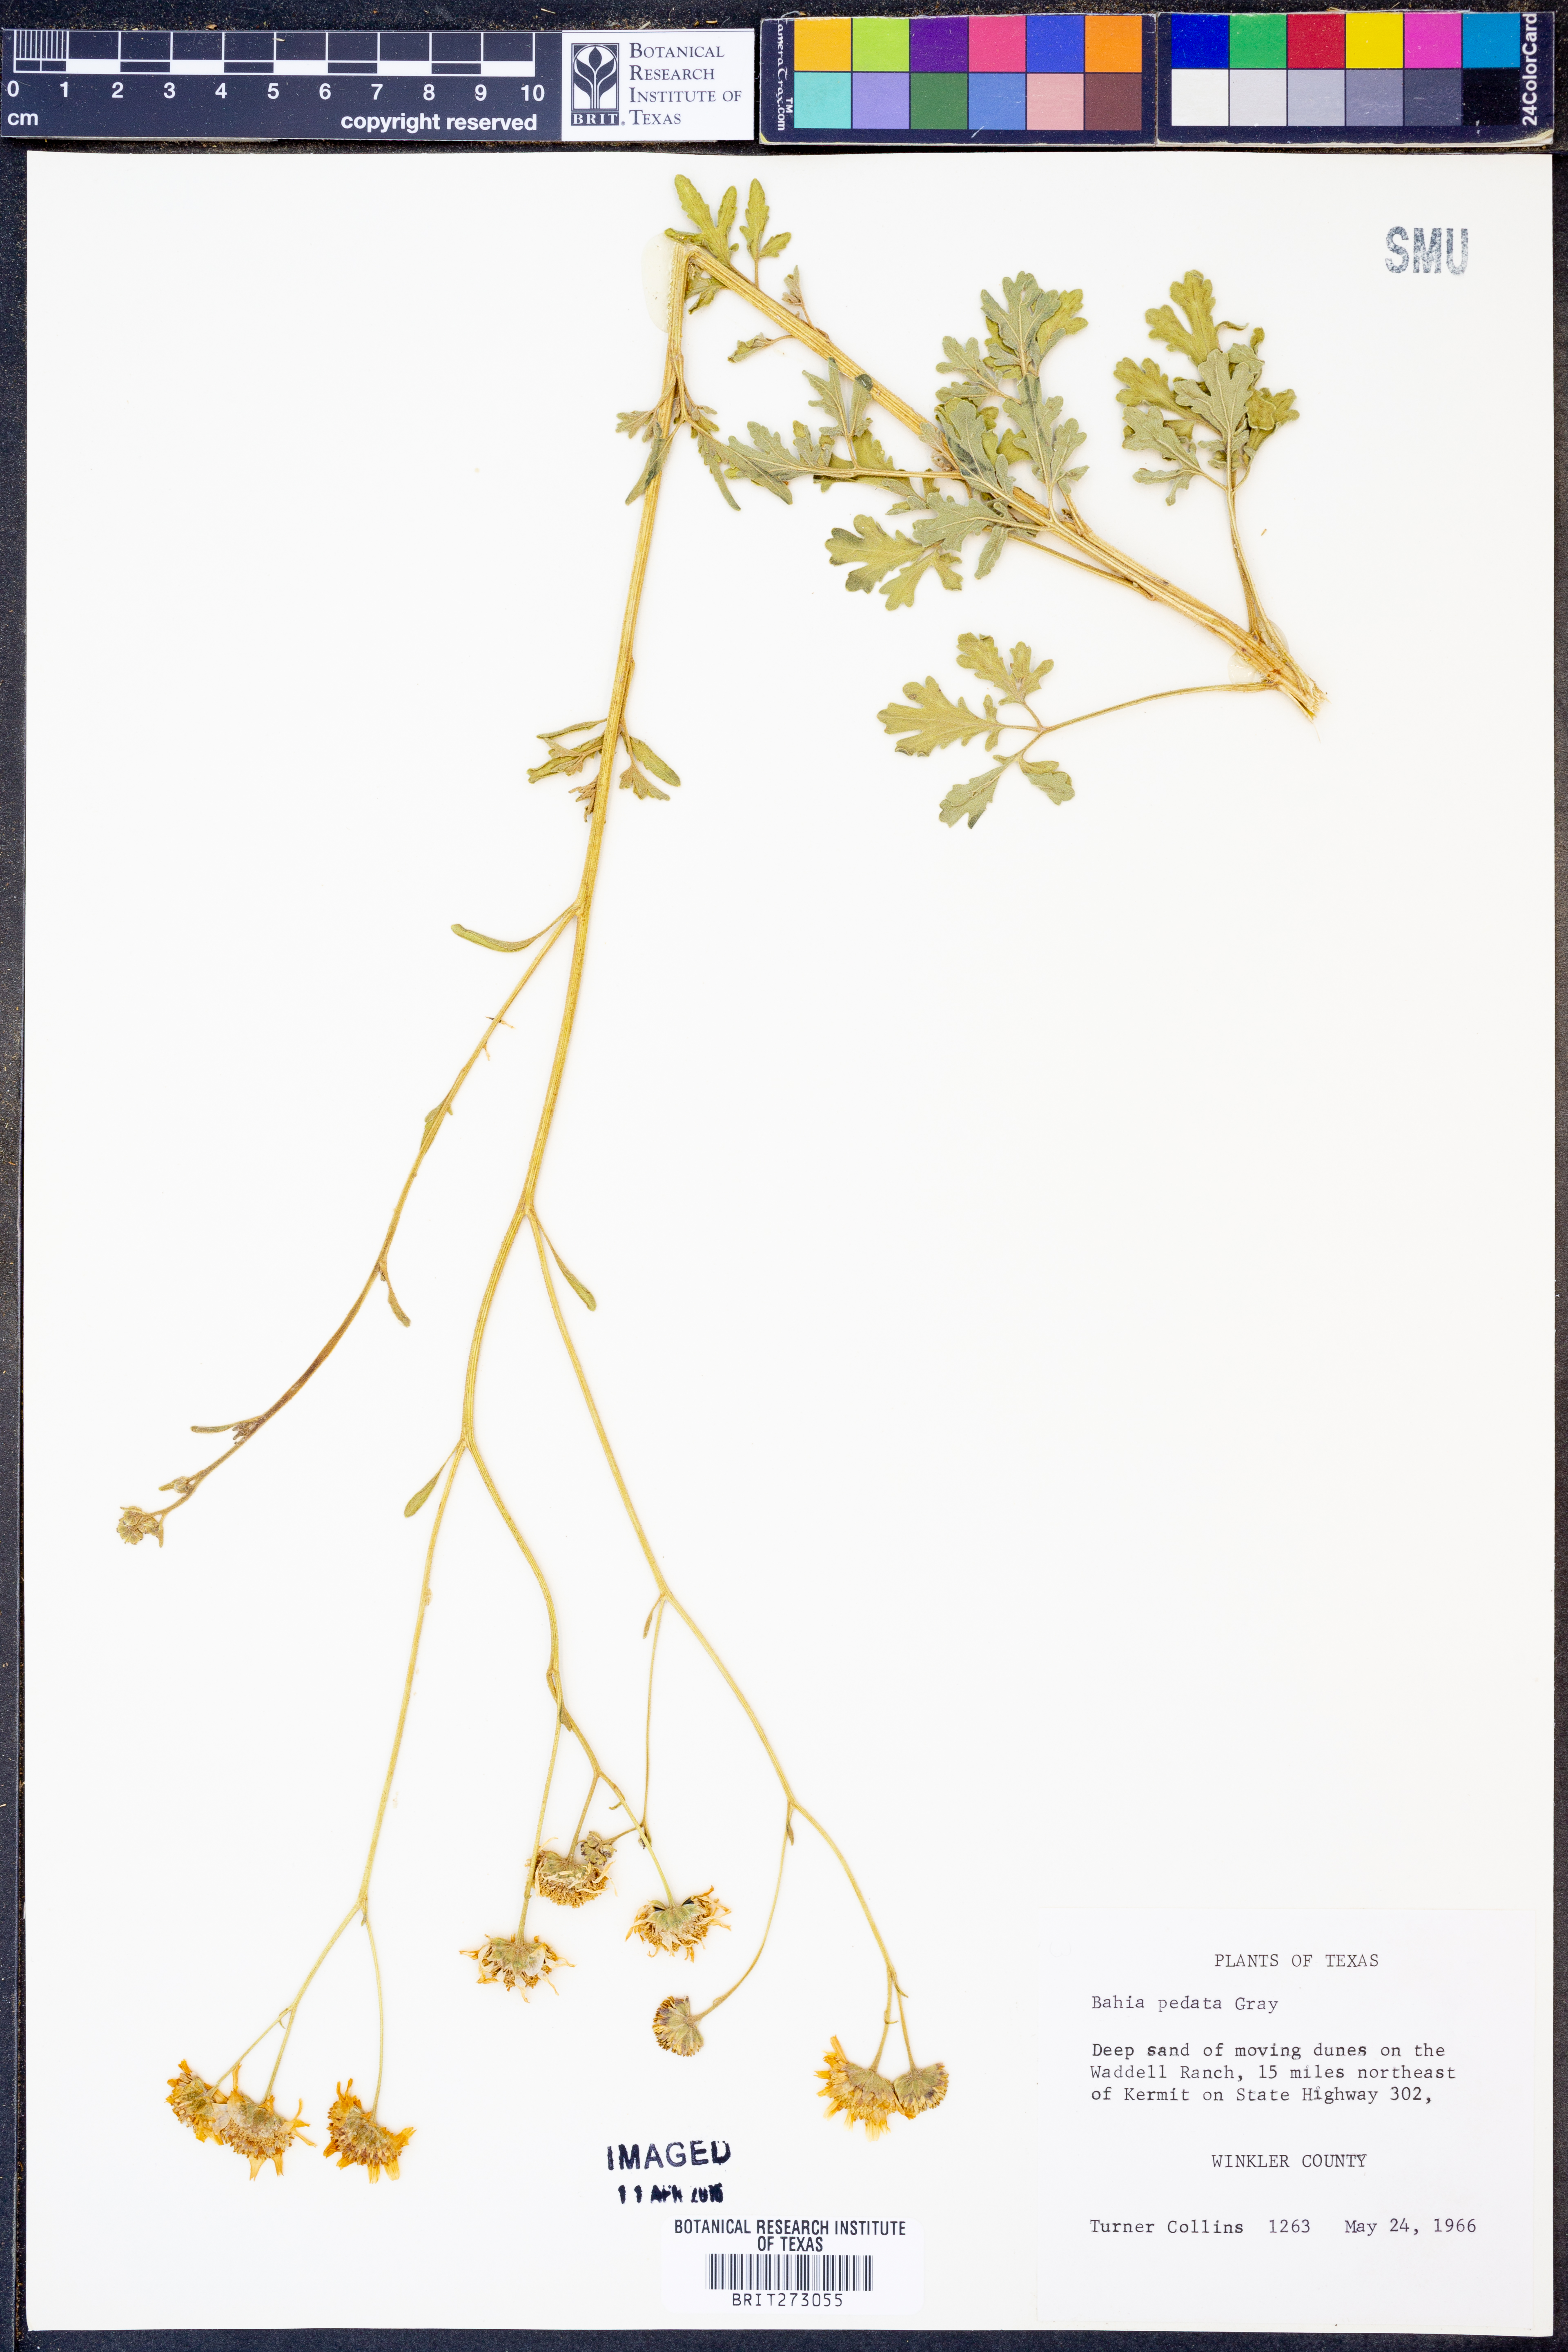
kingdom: Plantae
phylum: Tracheophyta
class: Magnoliopsida
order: Asterales
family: Asteraceae
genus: Hymenothrix
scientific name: Hymenothrix pedata
